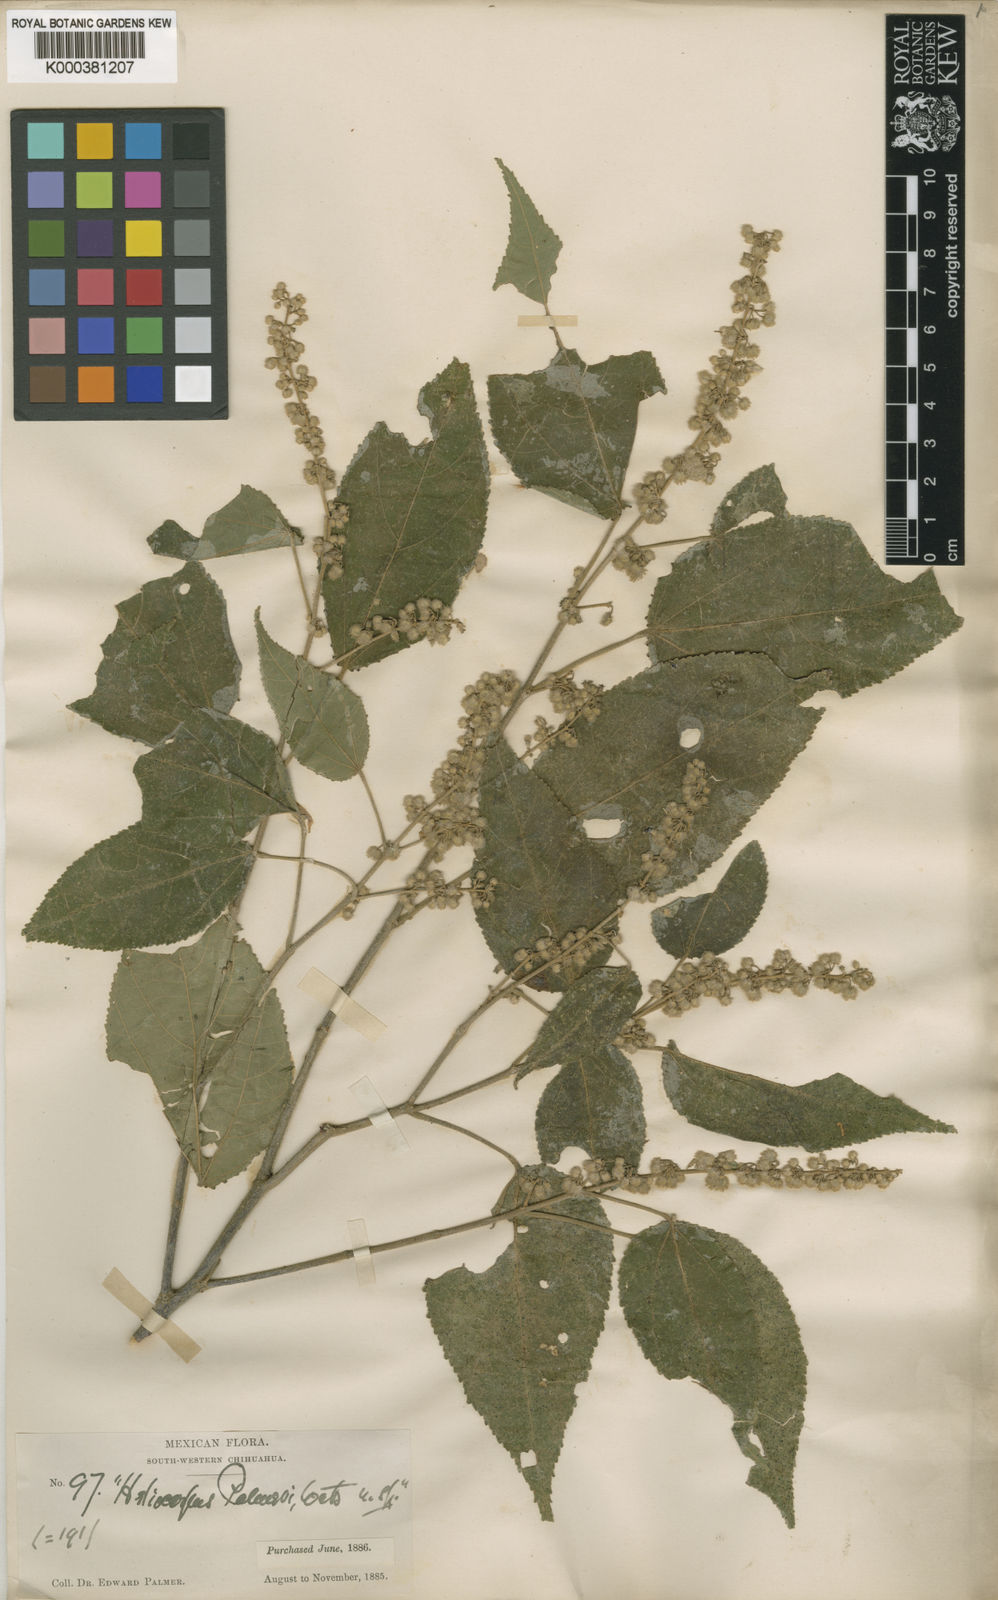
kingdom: Plantae
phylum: Tracheophyta
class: Magnoliopsida
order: Malvales
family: Malvaceae
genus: Heliocarpus
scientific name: Heliocarpus palmeri
